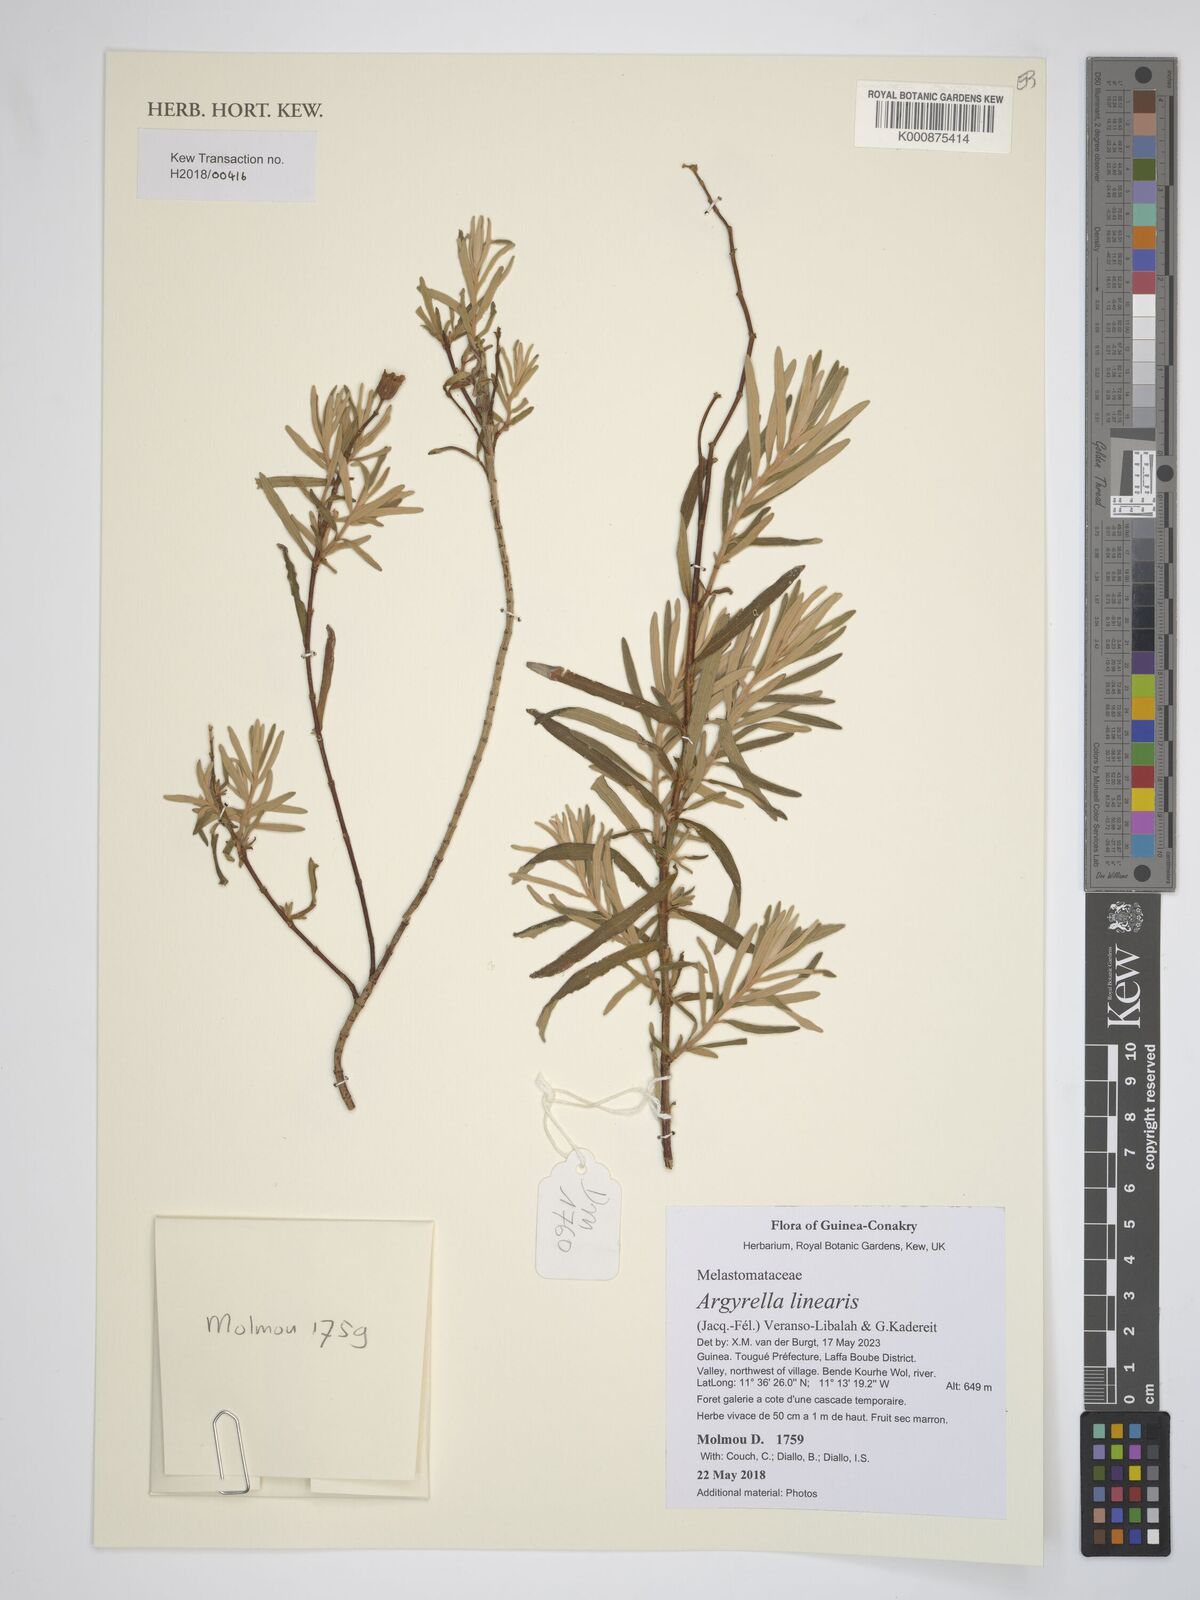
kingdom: Plantae
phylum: Tracheophyta
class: Magnoliopsida
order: Myrtales
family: Melastomataceae
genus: Argyrella
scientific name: Argyrella linearis
